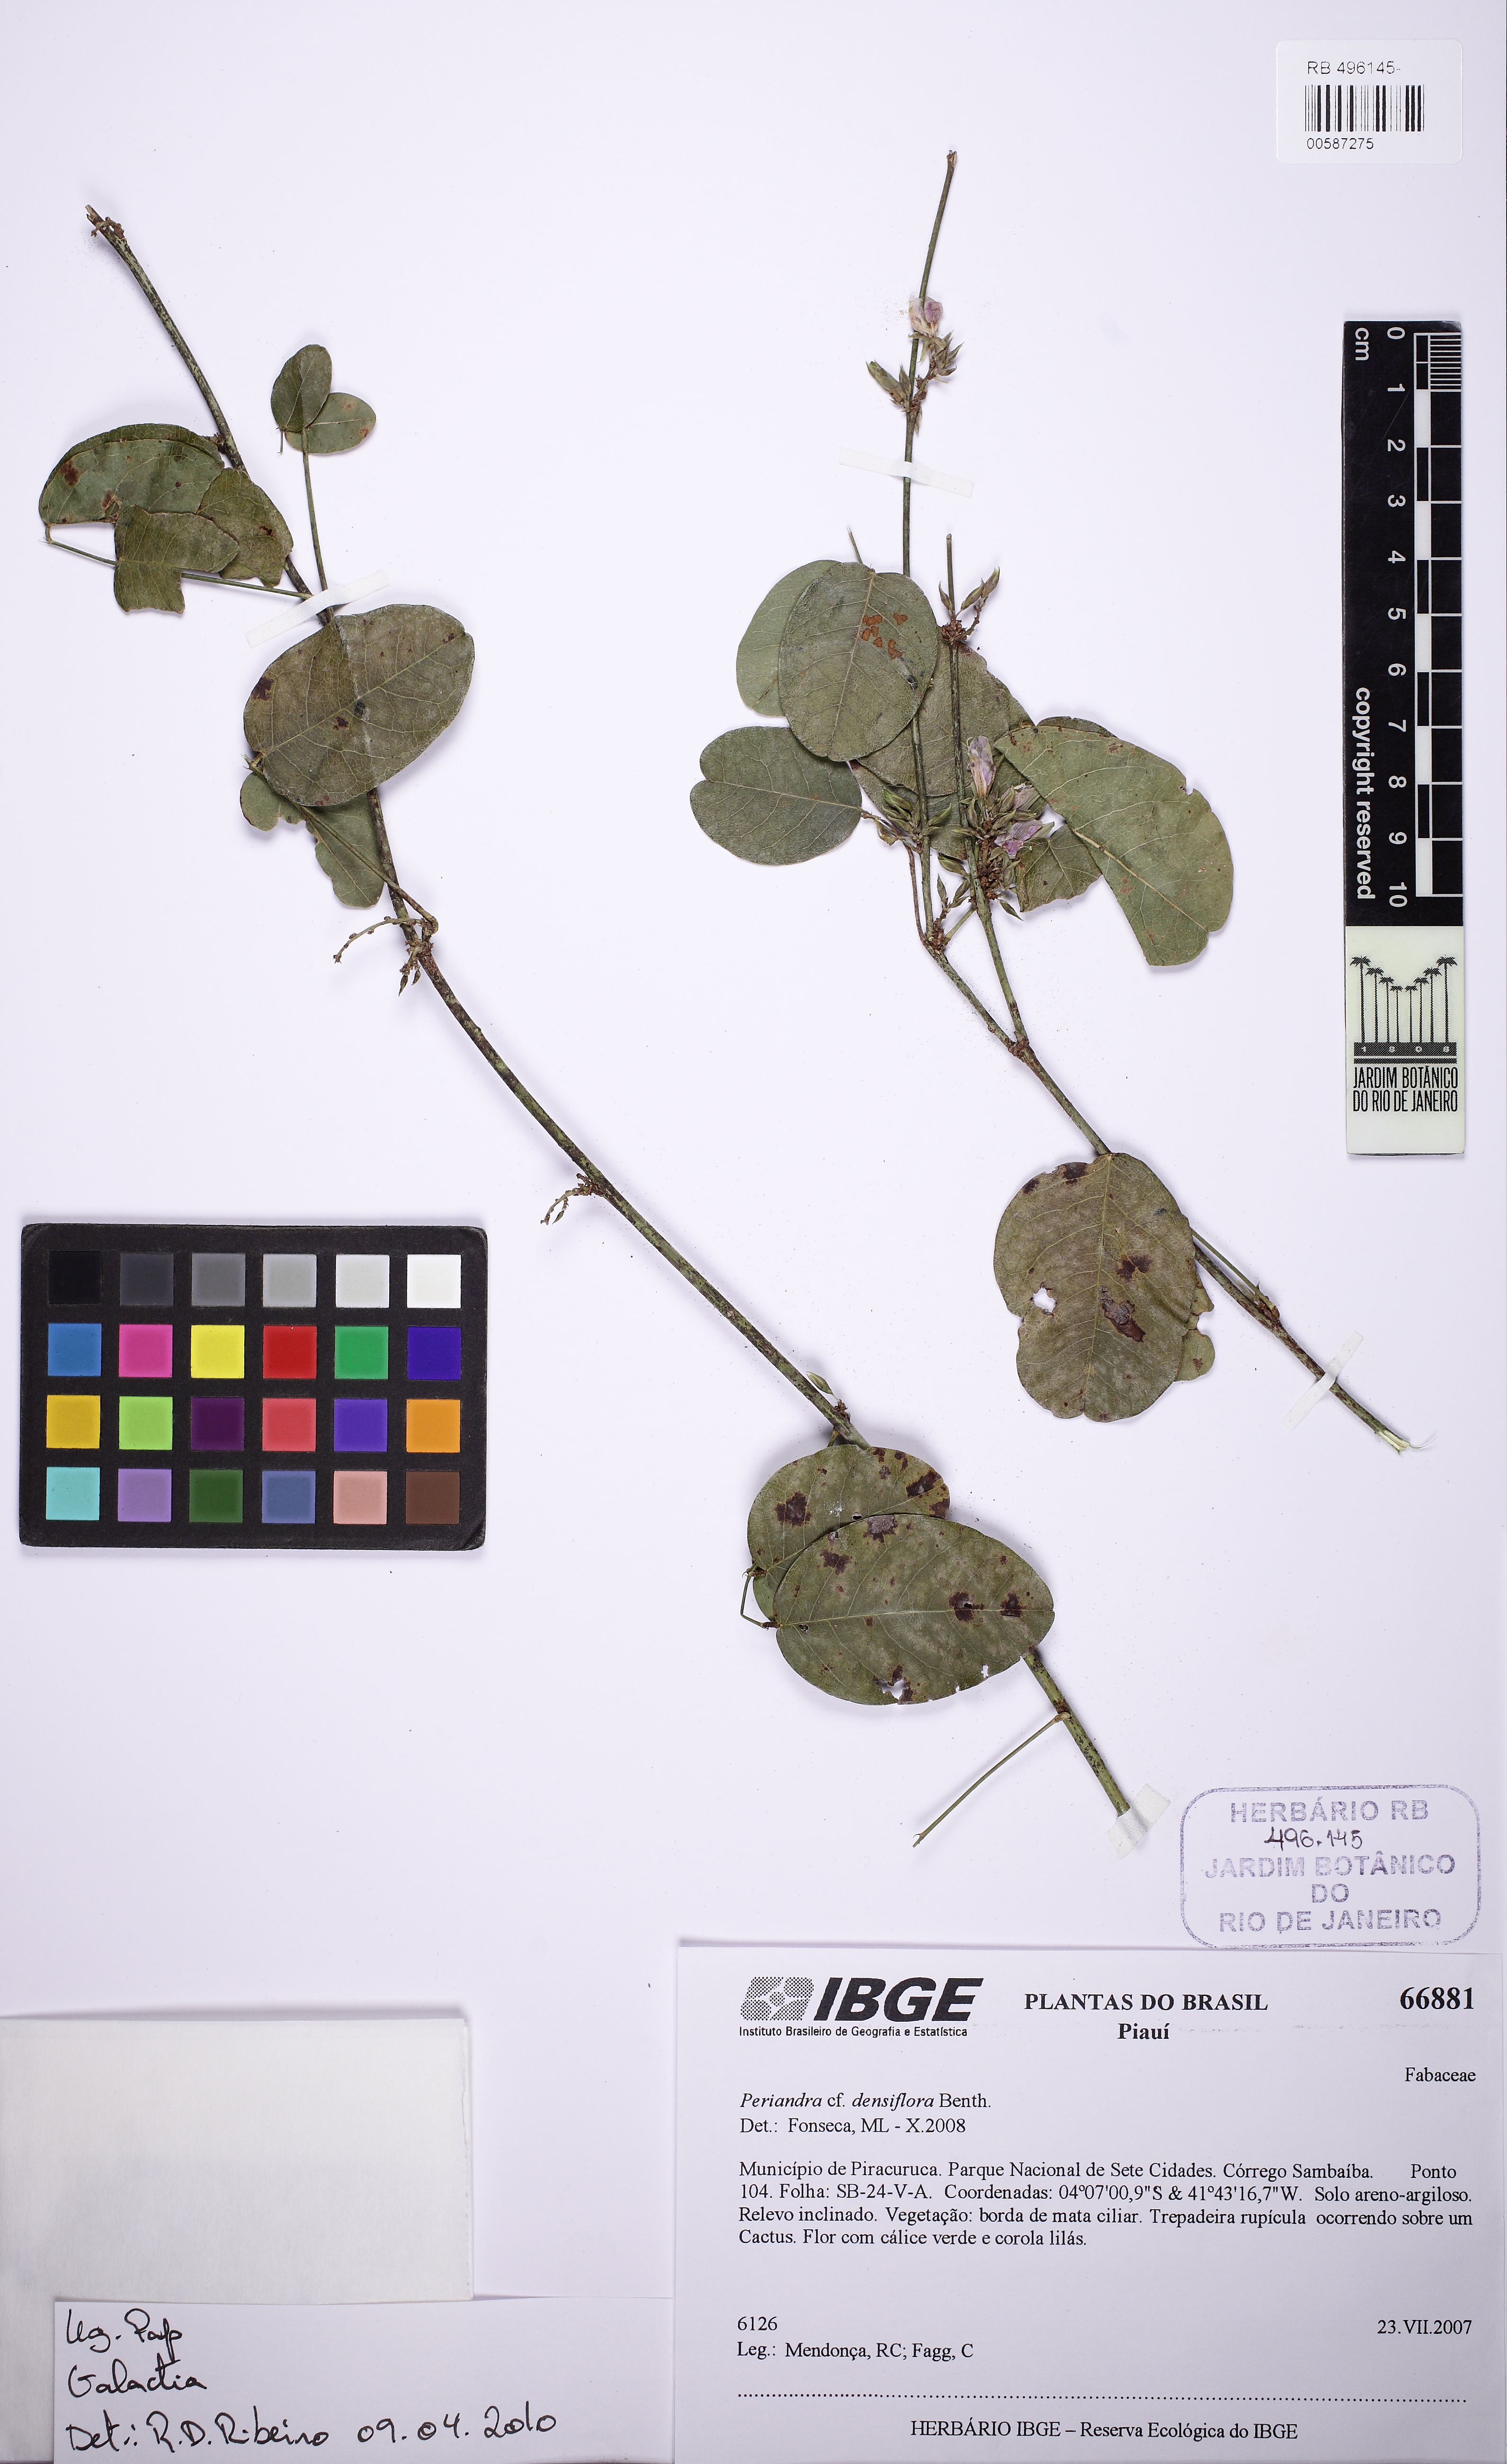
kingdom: Plantae
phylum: Tracheophyta
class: Magnoliopsida
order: Fabales
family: Fabaceae
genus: Galactia
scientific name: Galactia
